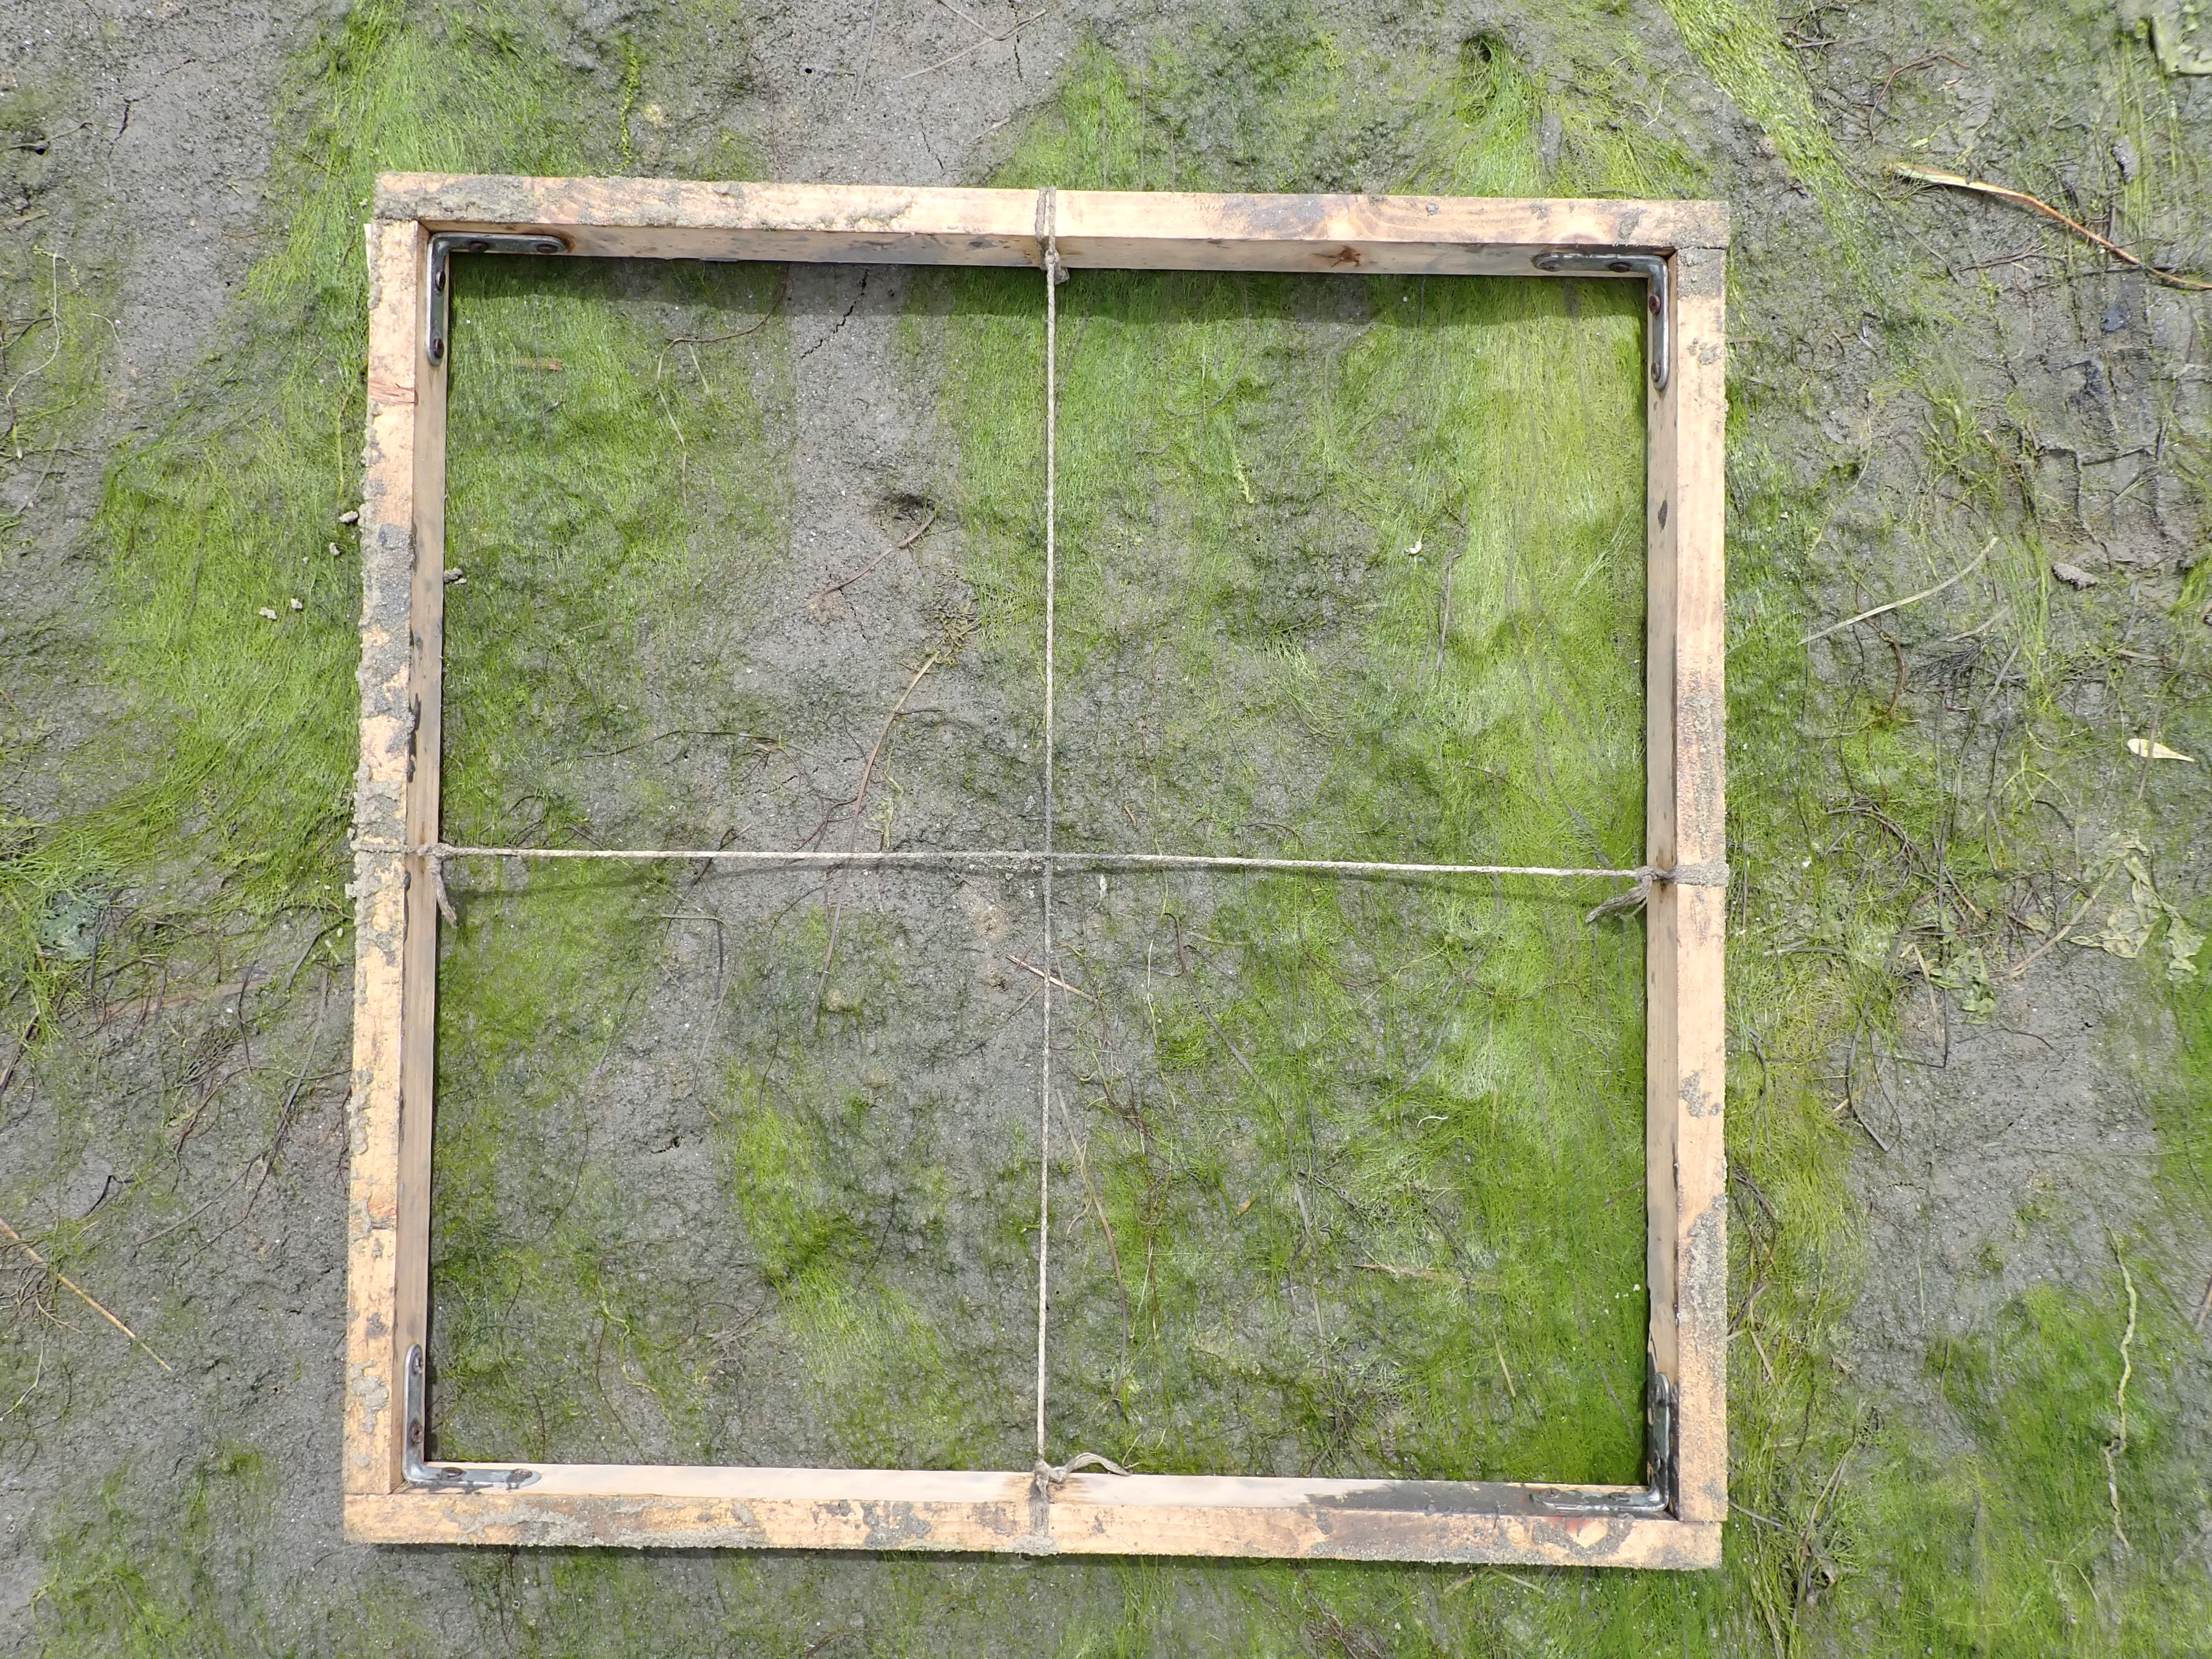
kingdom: Plantae
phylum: Tracheophyta
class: Liliopsida
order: Alismatales
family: Zosteraceae
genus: Zostera
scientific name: Zostera noltii
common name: Dwarf eelgrass
